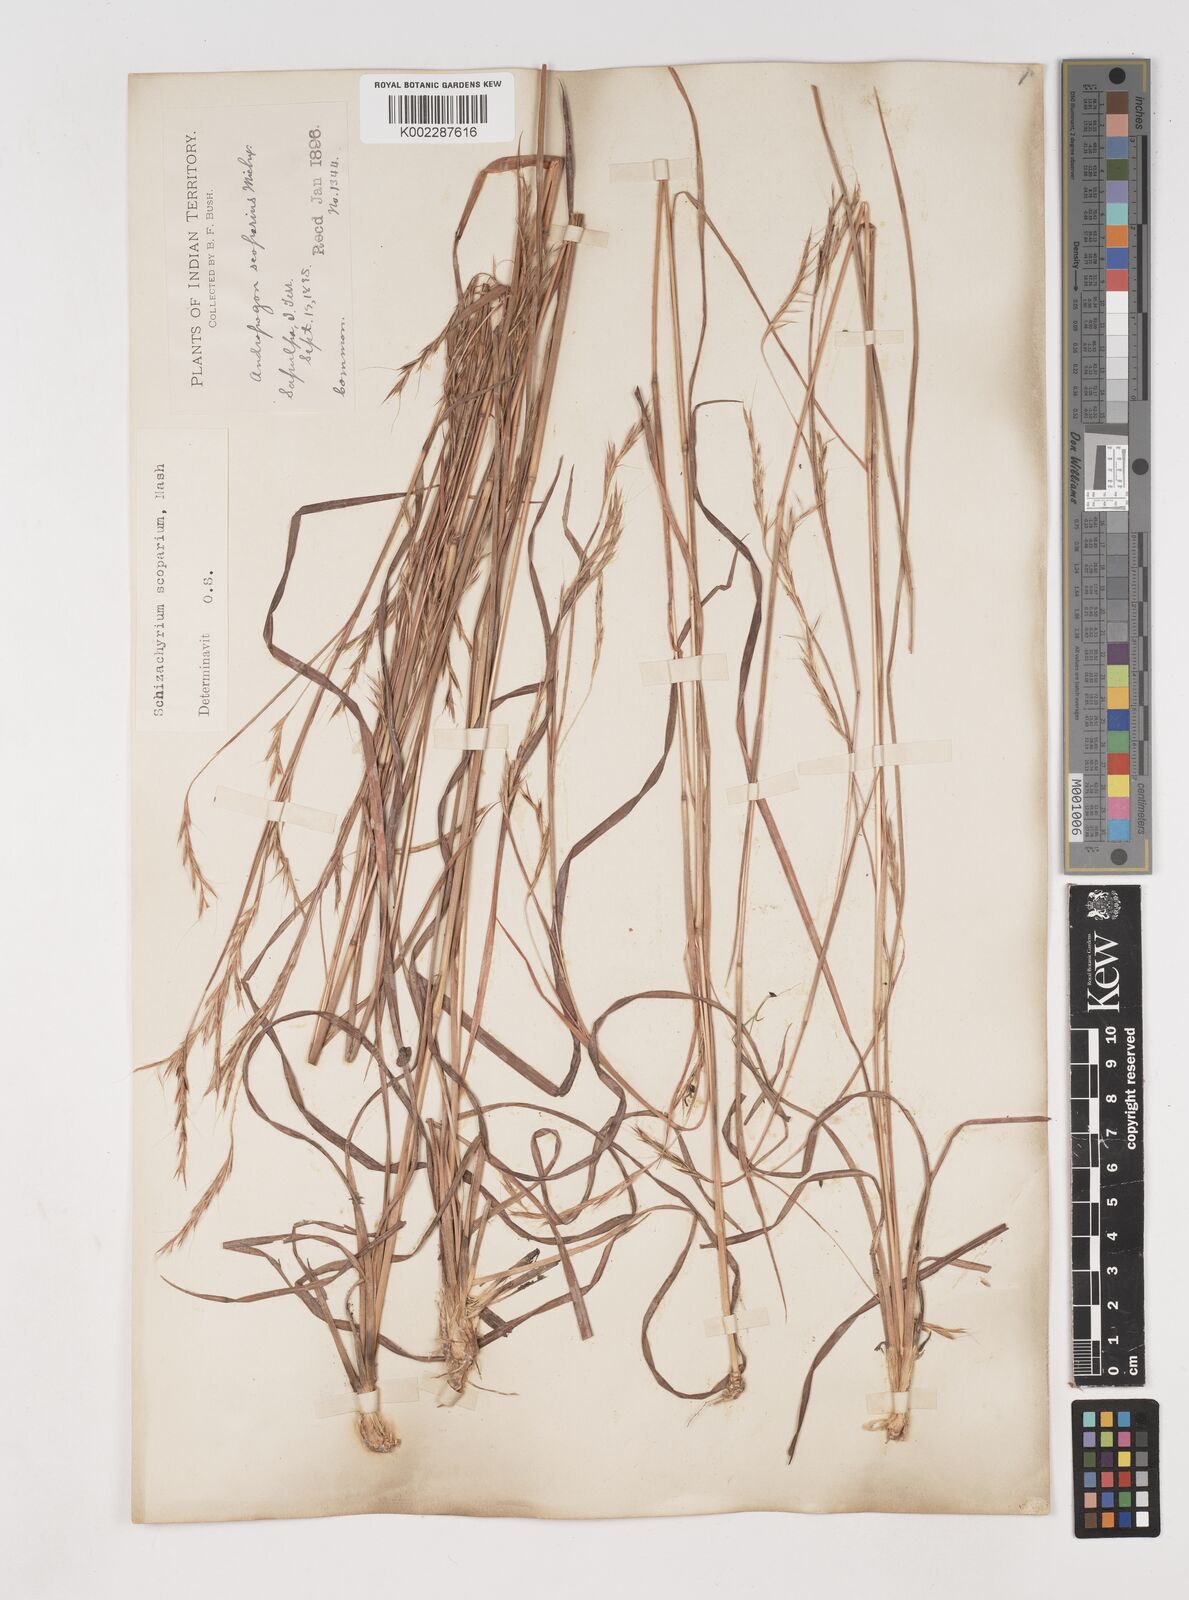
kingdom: Plantae
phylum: Tracheophyta
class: Liliopsida
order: Poales
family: Poaceae
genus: Schizachyrium
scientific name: Schizachyrium scoparium
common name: Little bluestem
